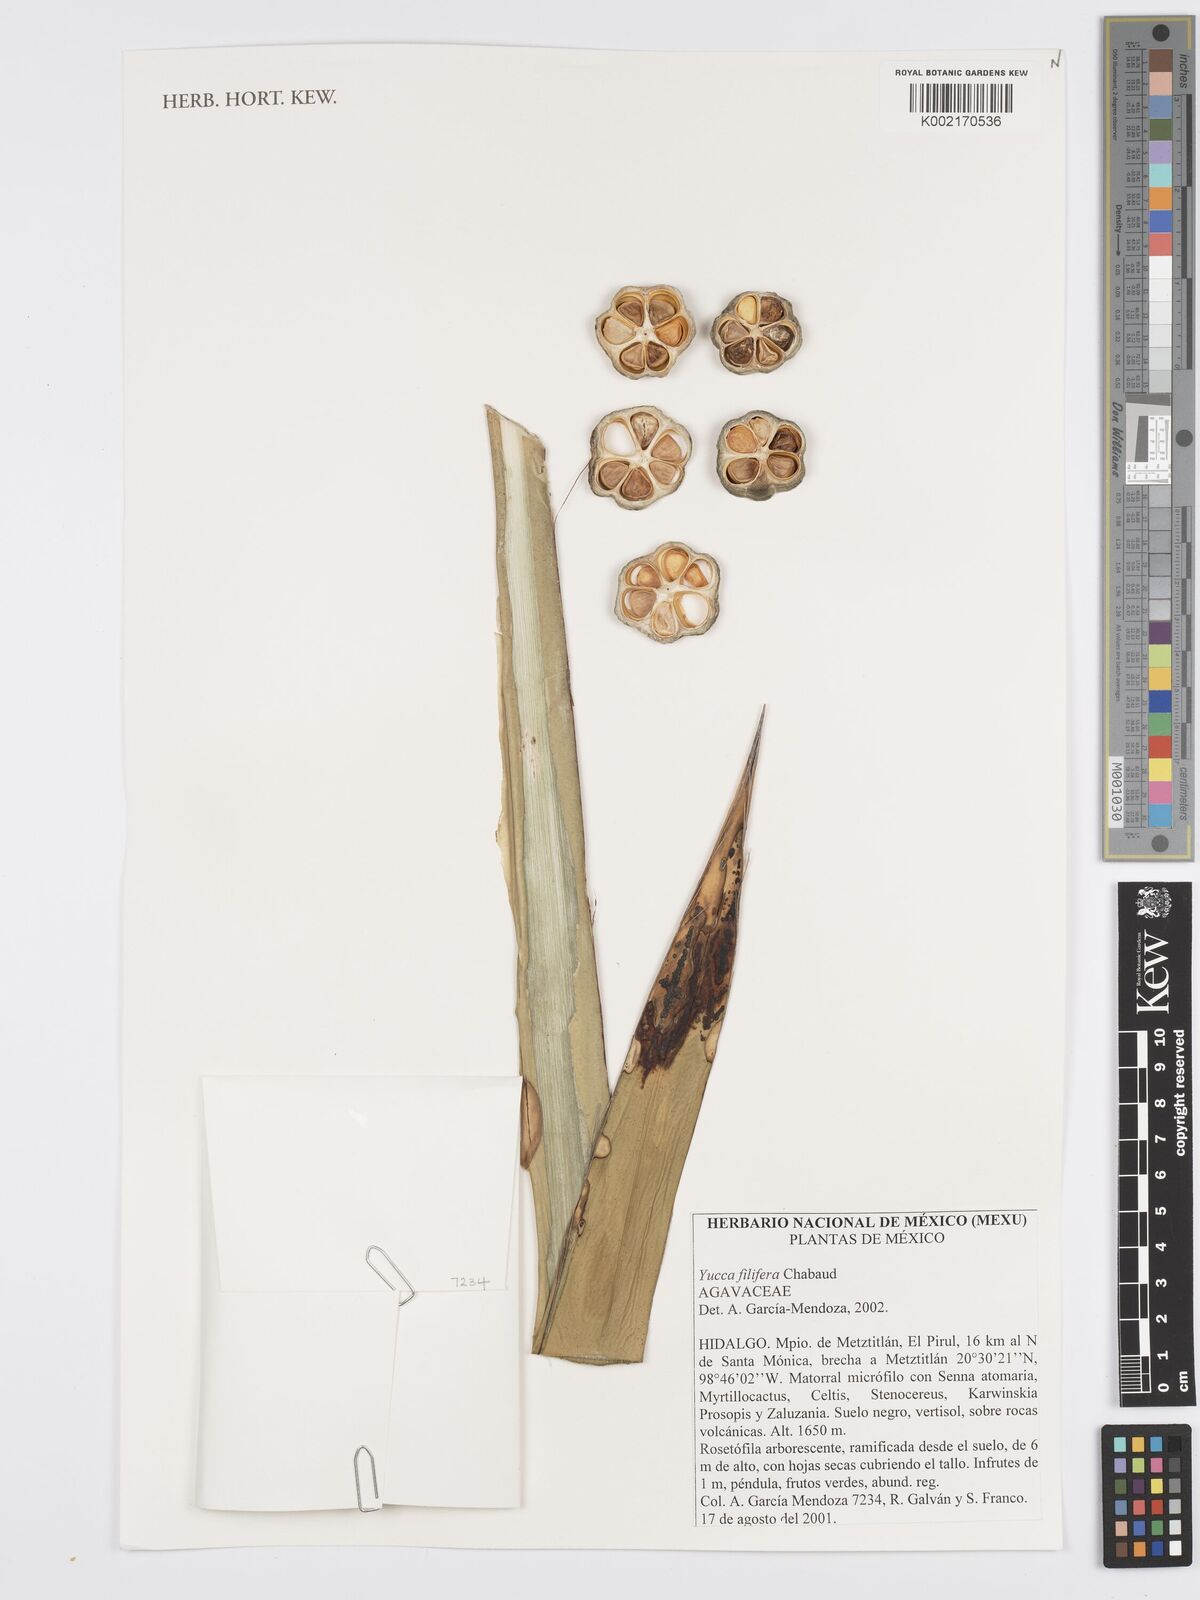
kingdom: Plantae
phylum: Tracheophyta
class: Liliopsida
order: Asparagales
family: Asparagaceae
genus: Yucca
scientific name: Yucca filifera
